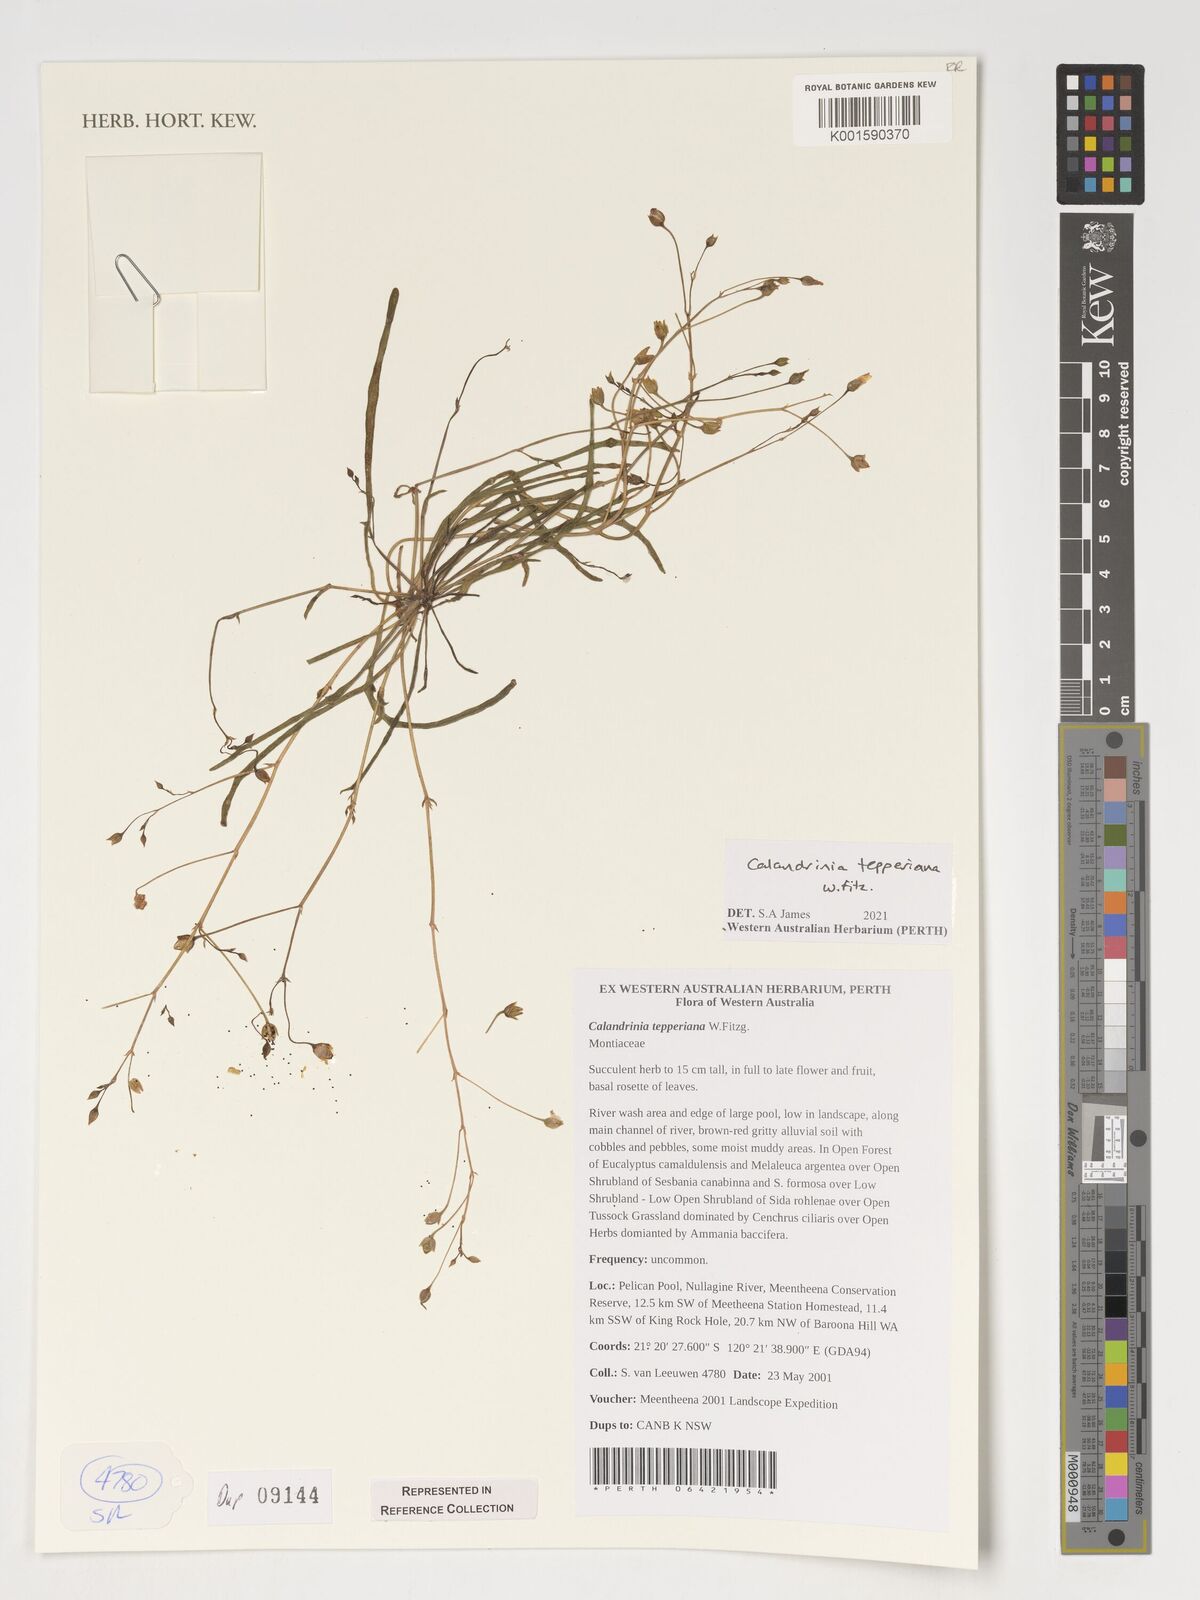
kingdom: Plantae
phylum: Tracheophyta
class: Magnoliopsida
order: Caryophyllales
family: Montiaceae
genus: Rumicastrum
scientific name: Rumicastrum tepperianum
